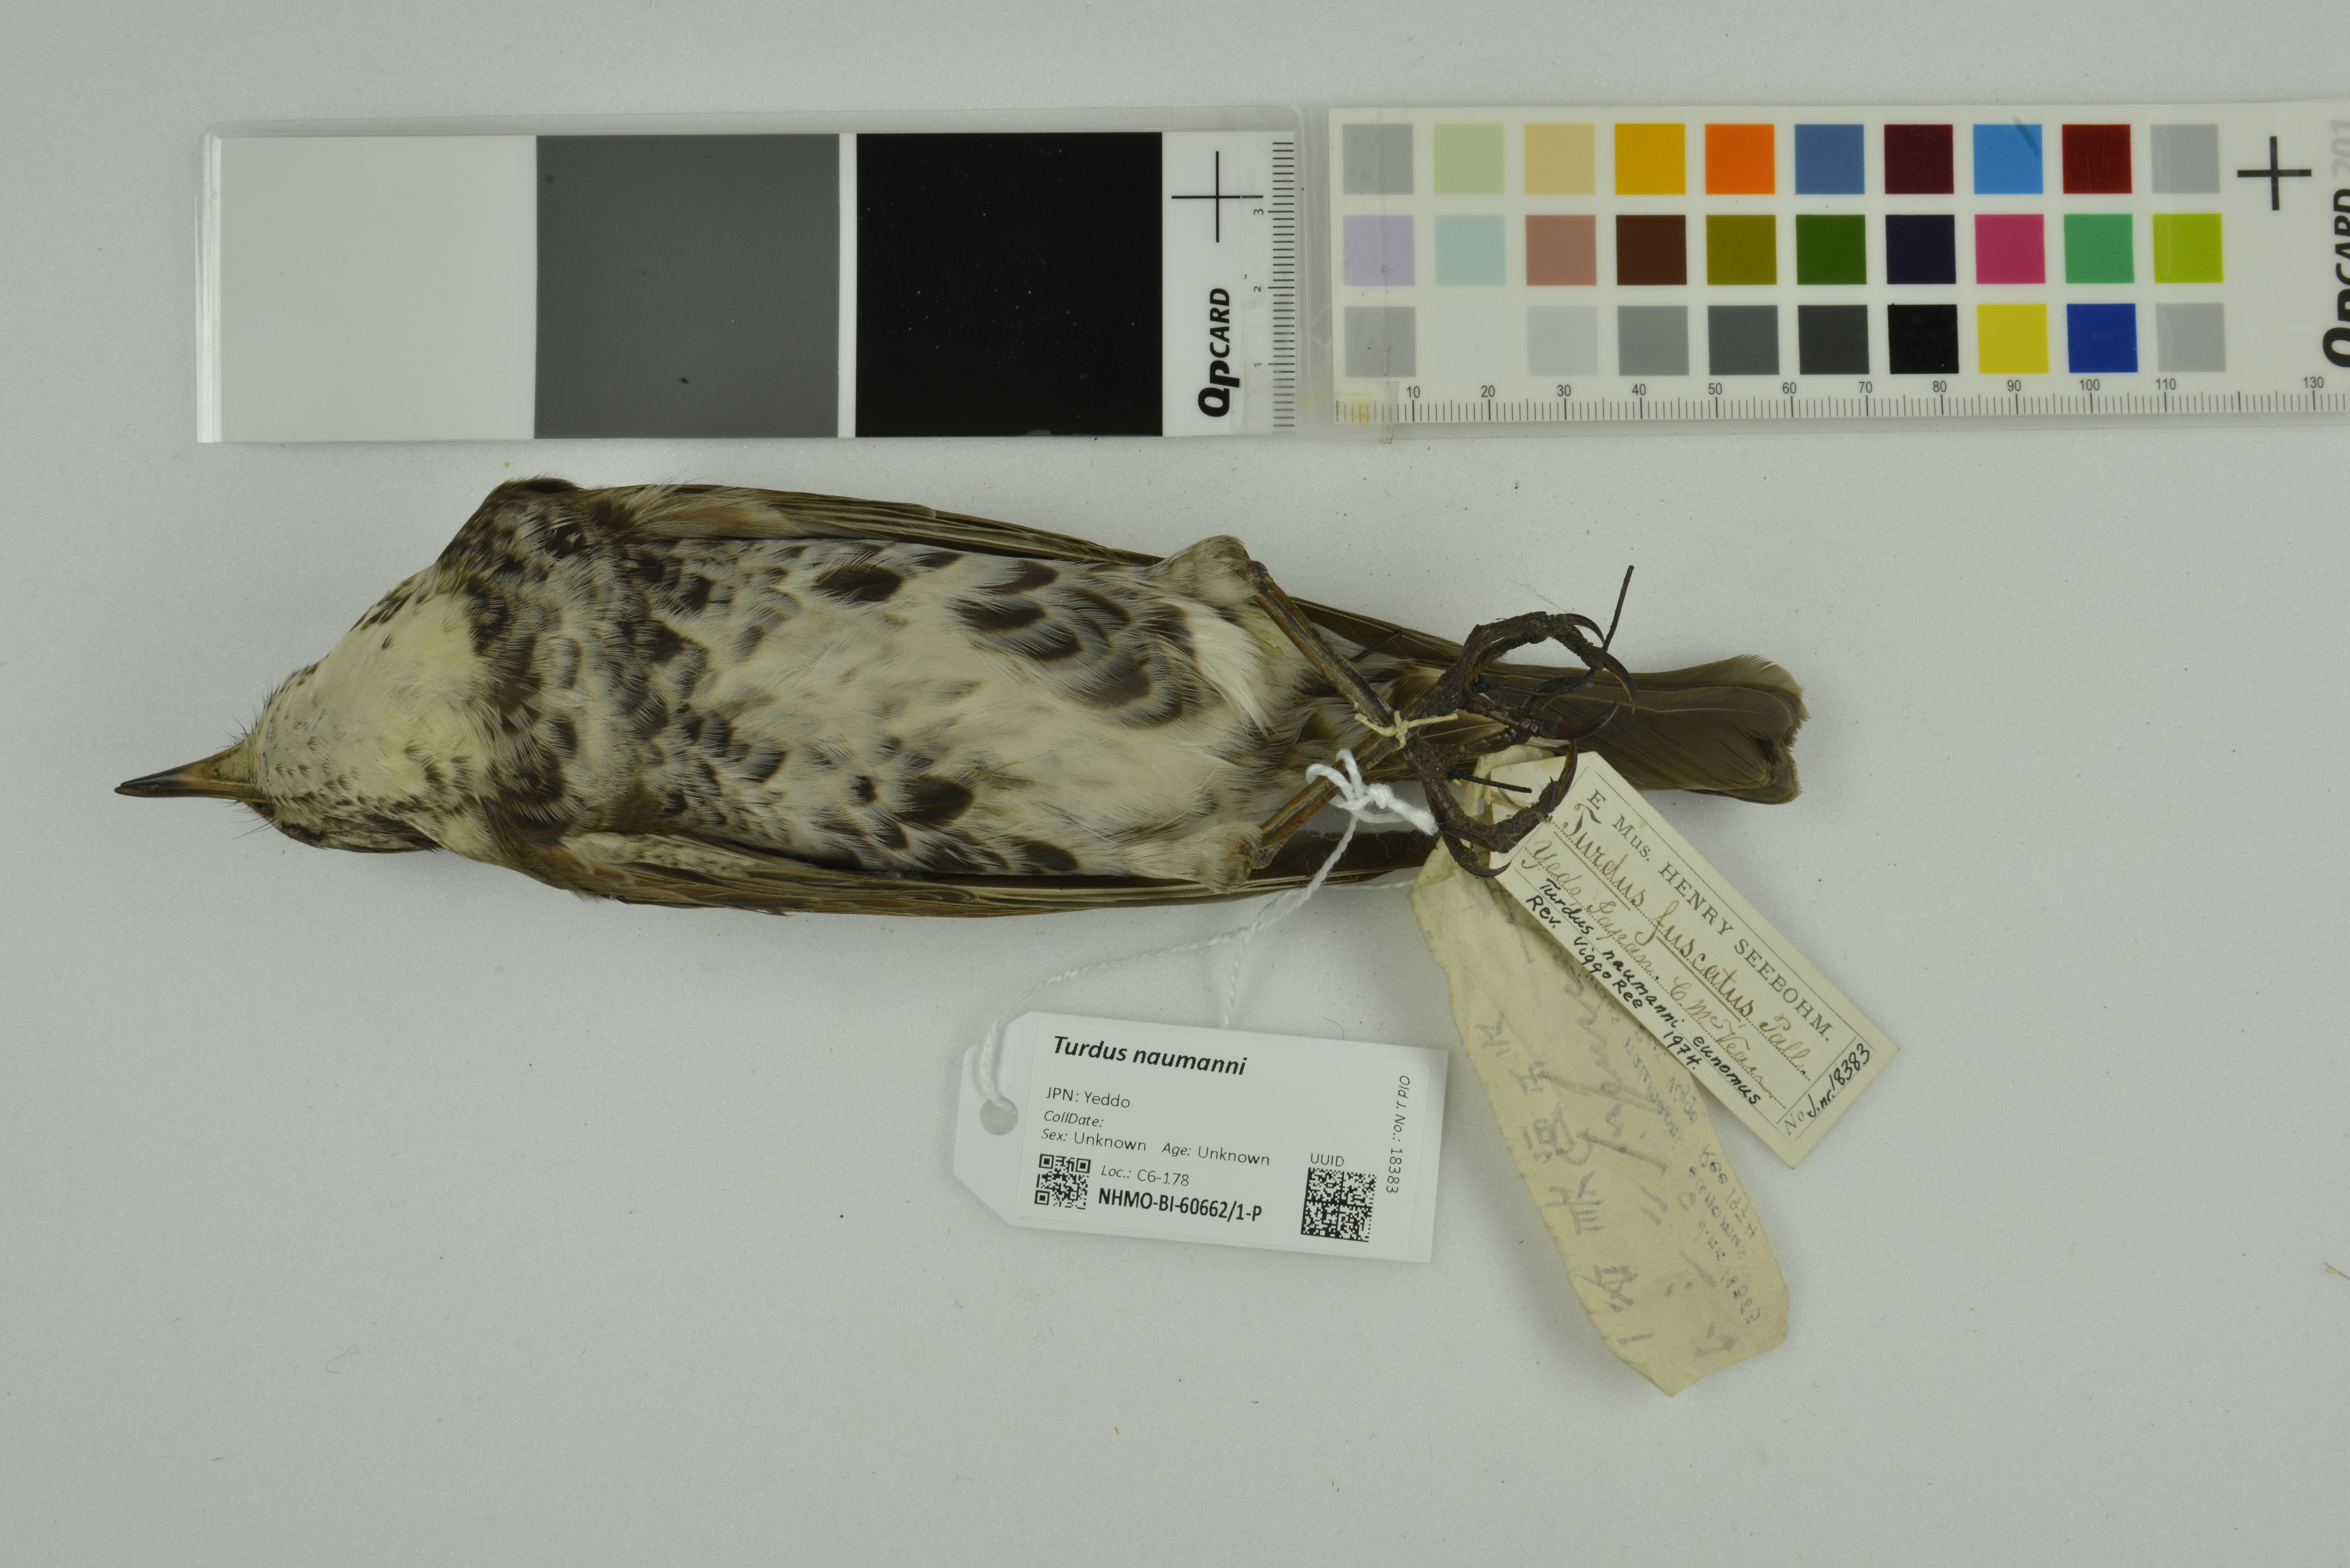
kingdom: Animalia
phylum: Chordata
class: Aves
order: Passeriformes
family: Turdidae
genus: Turdus
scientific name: Turdus naumanni
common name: Naumann's thrush
